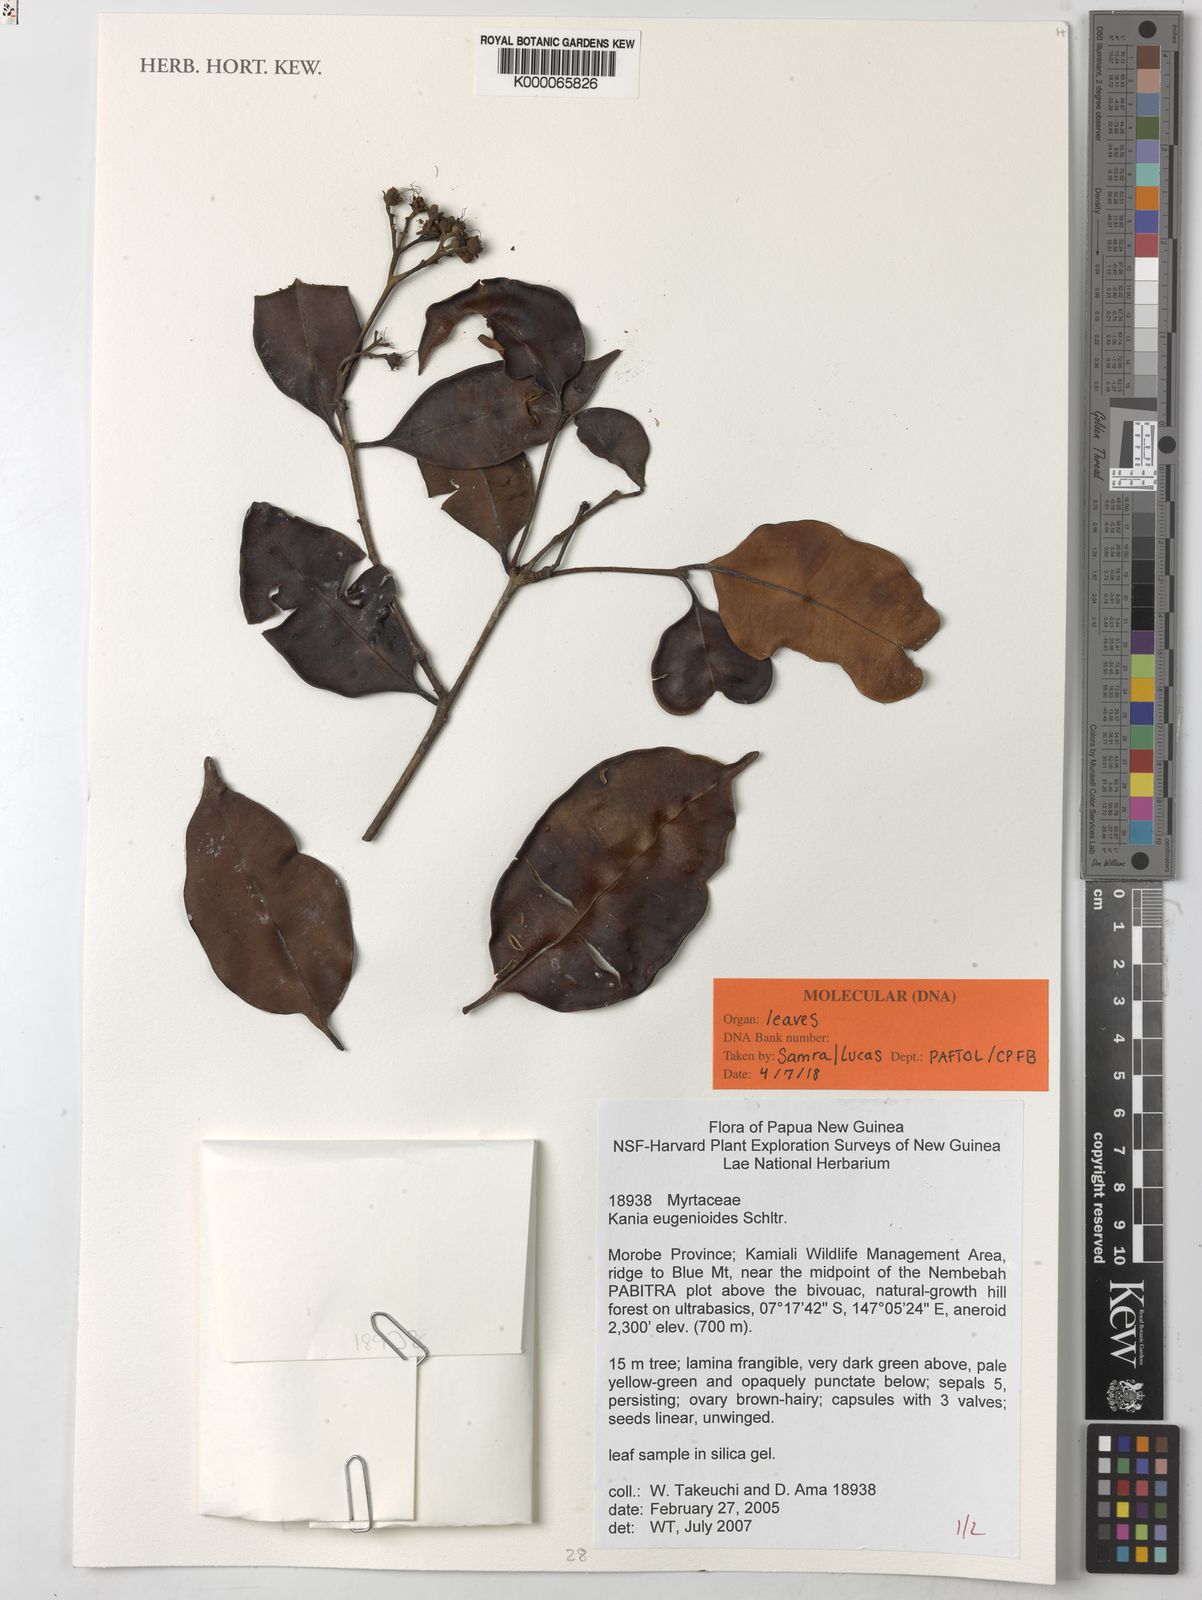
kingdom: Plantae
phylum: Tracheophyta
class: Magnoliopsida
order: Myrtales
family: Myrtaceae
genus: Kania
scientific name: Kania eugenioides
